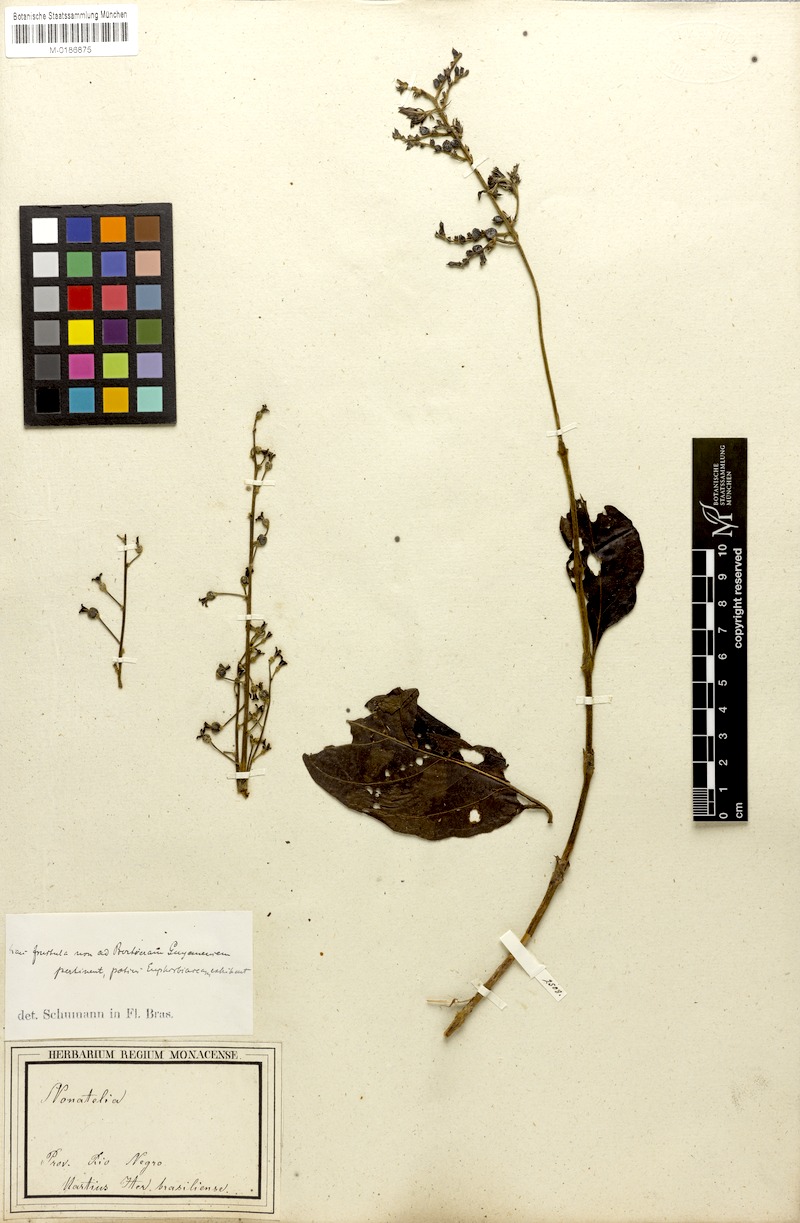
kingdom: Plantae
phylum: Tracheophyta
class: Magnoliopsida
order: Gentianales
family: Rubiaceae
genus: Bertiera
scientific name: Bertiera guianensis
